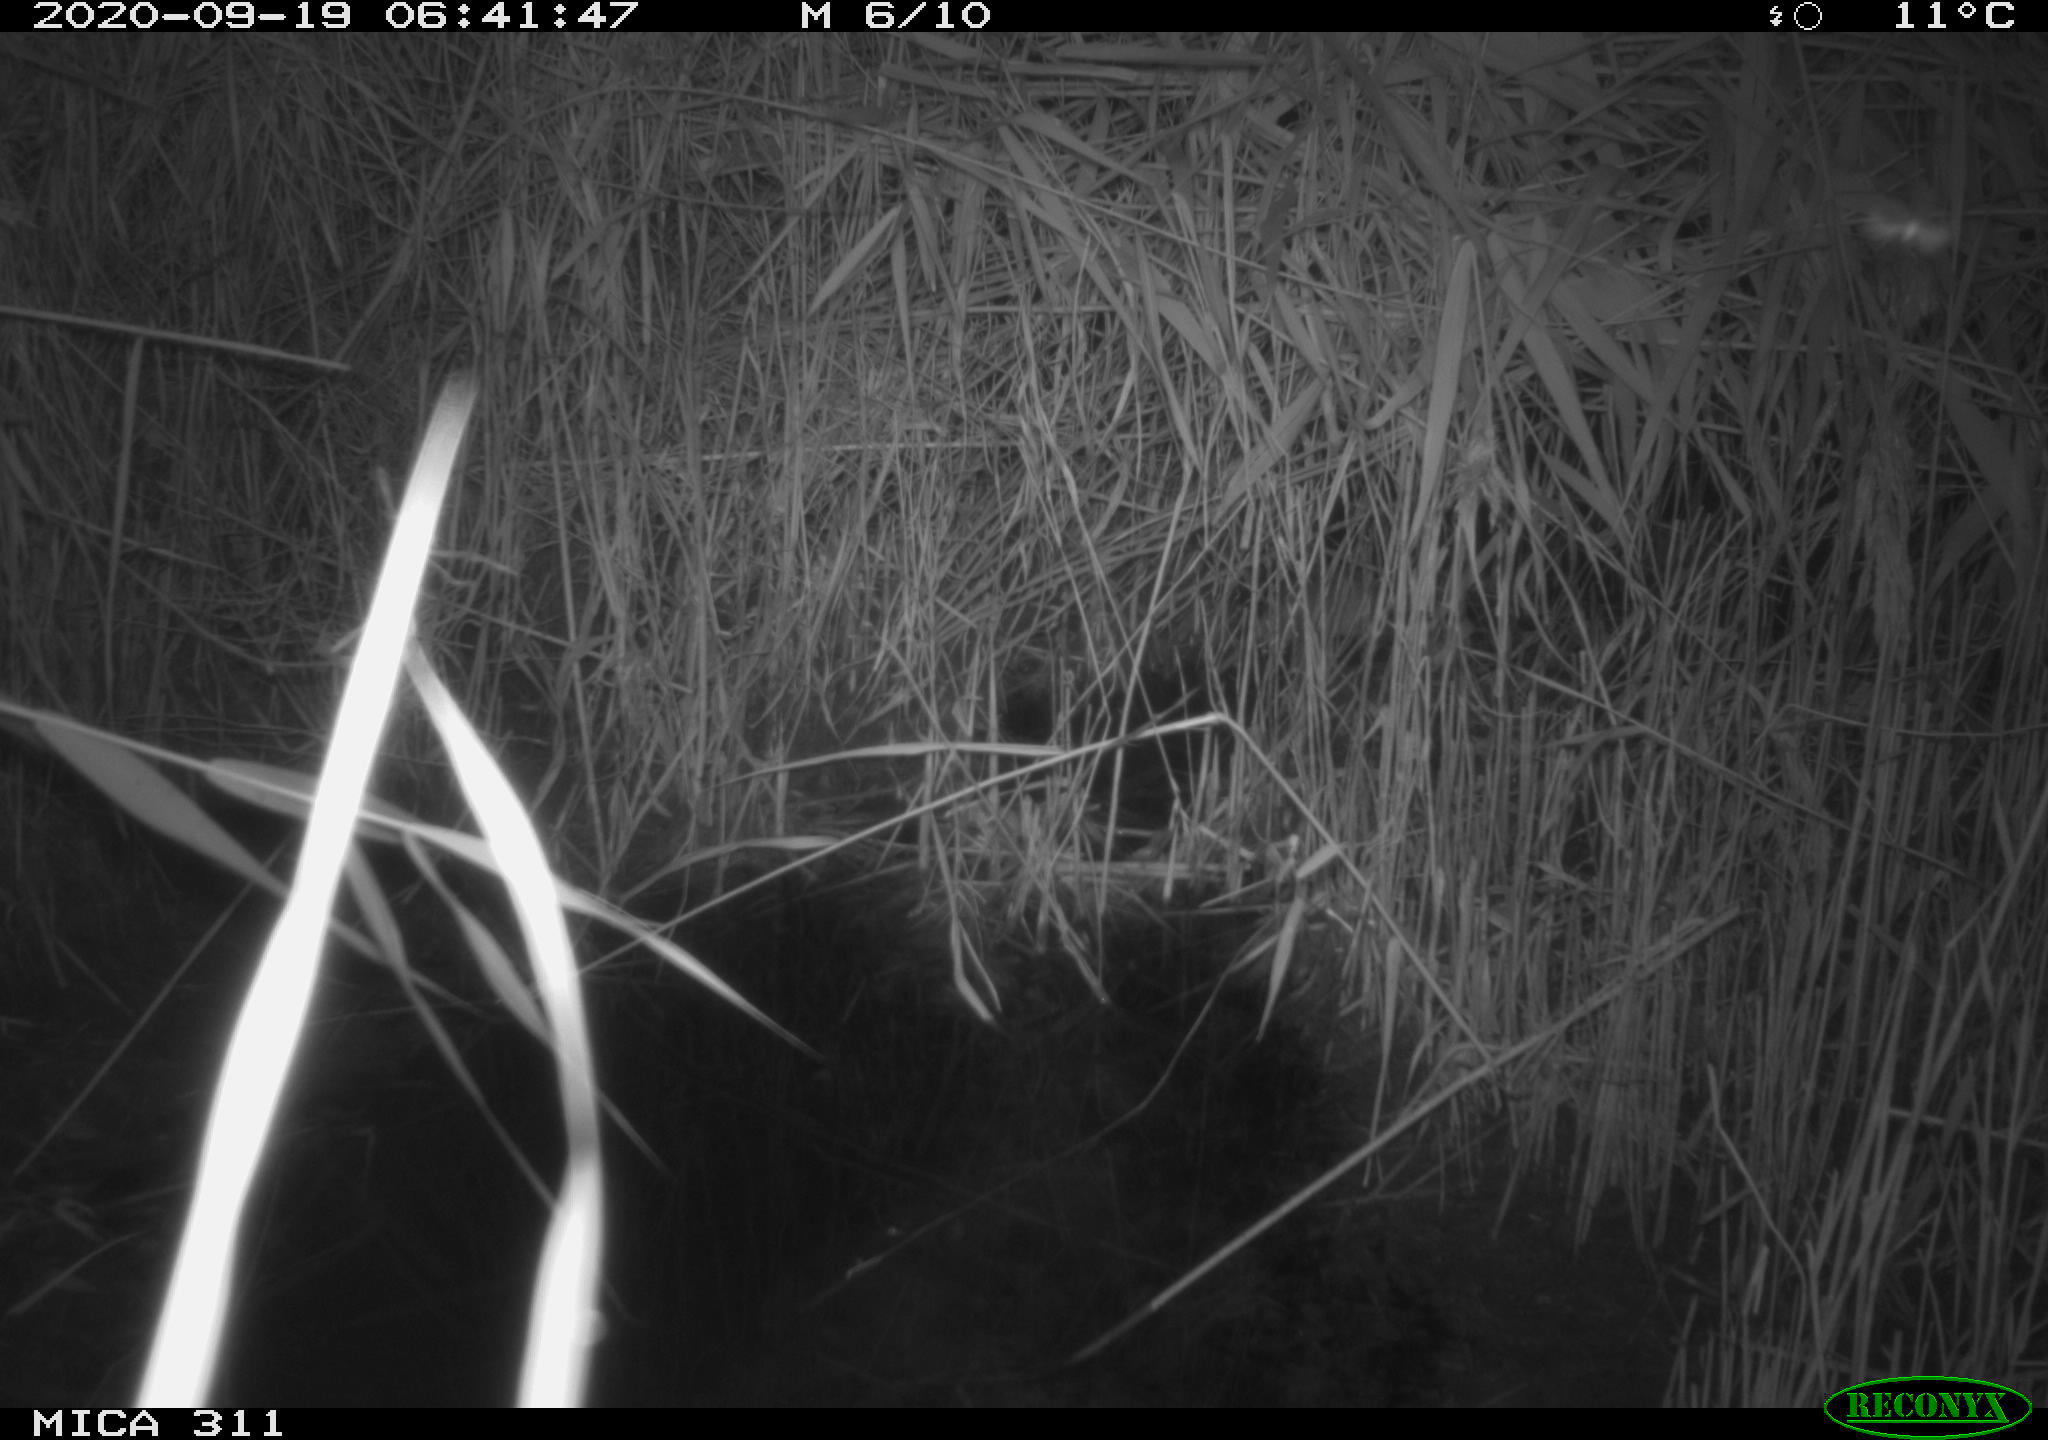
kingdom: Animalia
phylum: Chordata
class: Mammalia
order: Rodentia
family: Muridae
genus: Rattus
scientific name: Rattus norvegicus
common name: Brown rat
